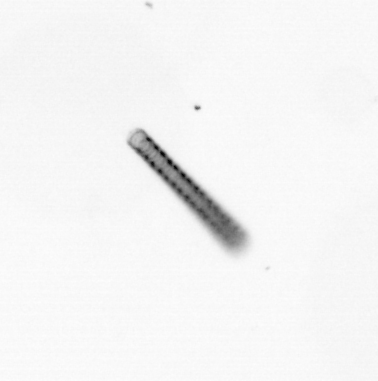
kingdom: Chromista
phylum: Ochrophyta
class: Bacillariophyceae
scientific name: Bacillariophyceae
